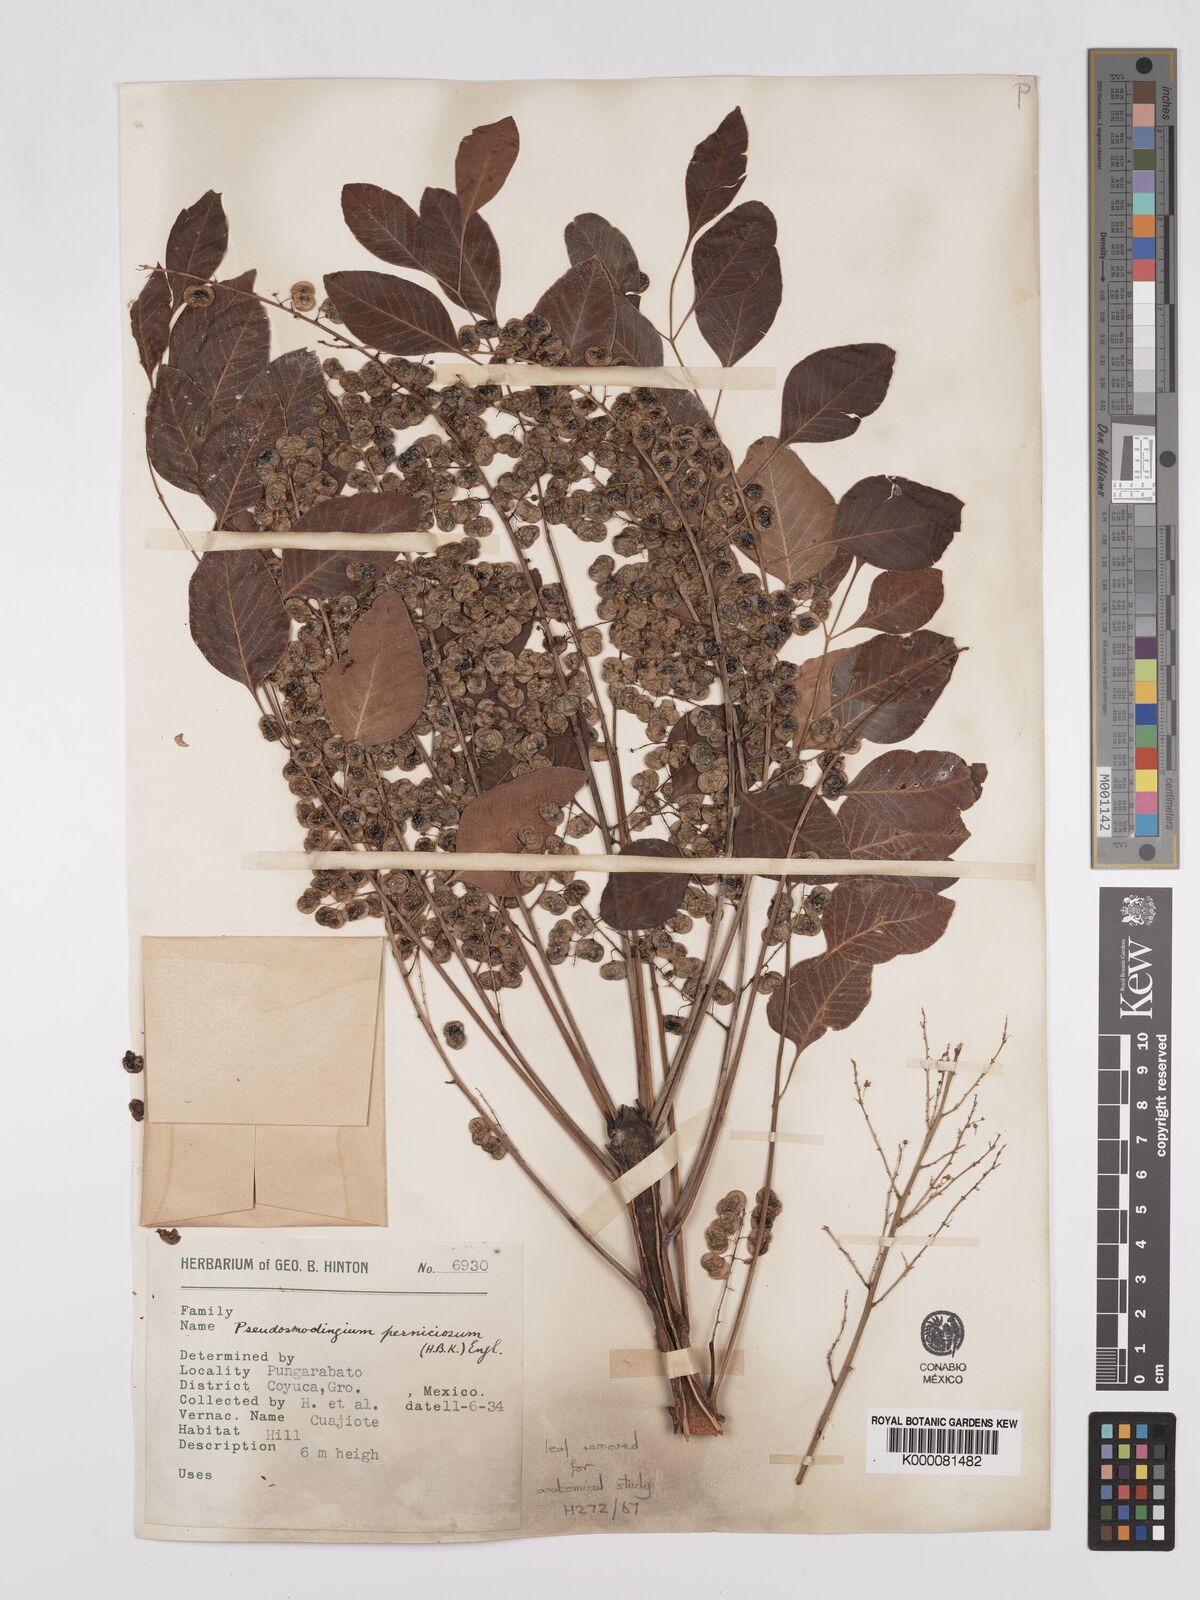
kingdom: Plantae
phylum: Tracheophyta
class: Magnoliopsida
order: Sapindales
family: Anacardiaceae
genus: Pseudosmodingium
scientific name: Pseudosmodingium perniciosum
